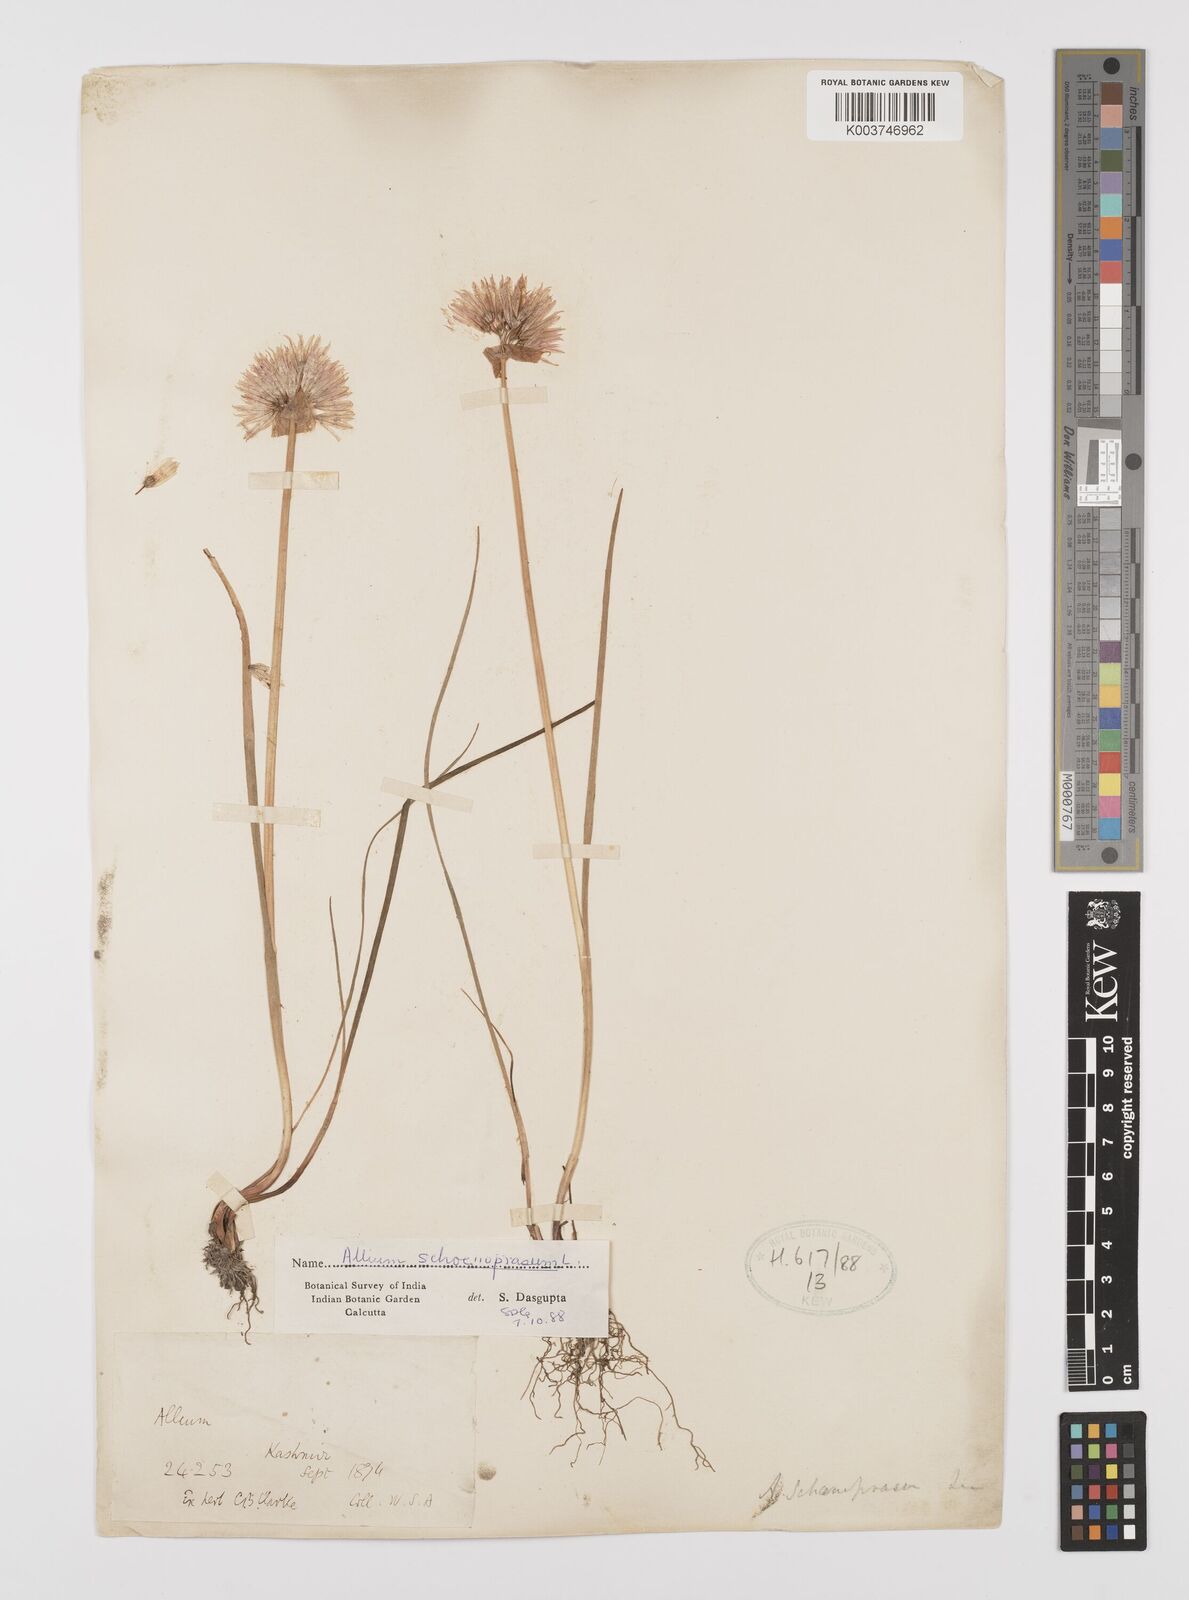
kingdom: Plantae
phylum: Tracheophyta
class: Liliopsida
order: Asparagales
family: Amaryllidaceae
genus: Allium
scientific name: Allium schoenoprasum
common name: Chives
